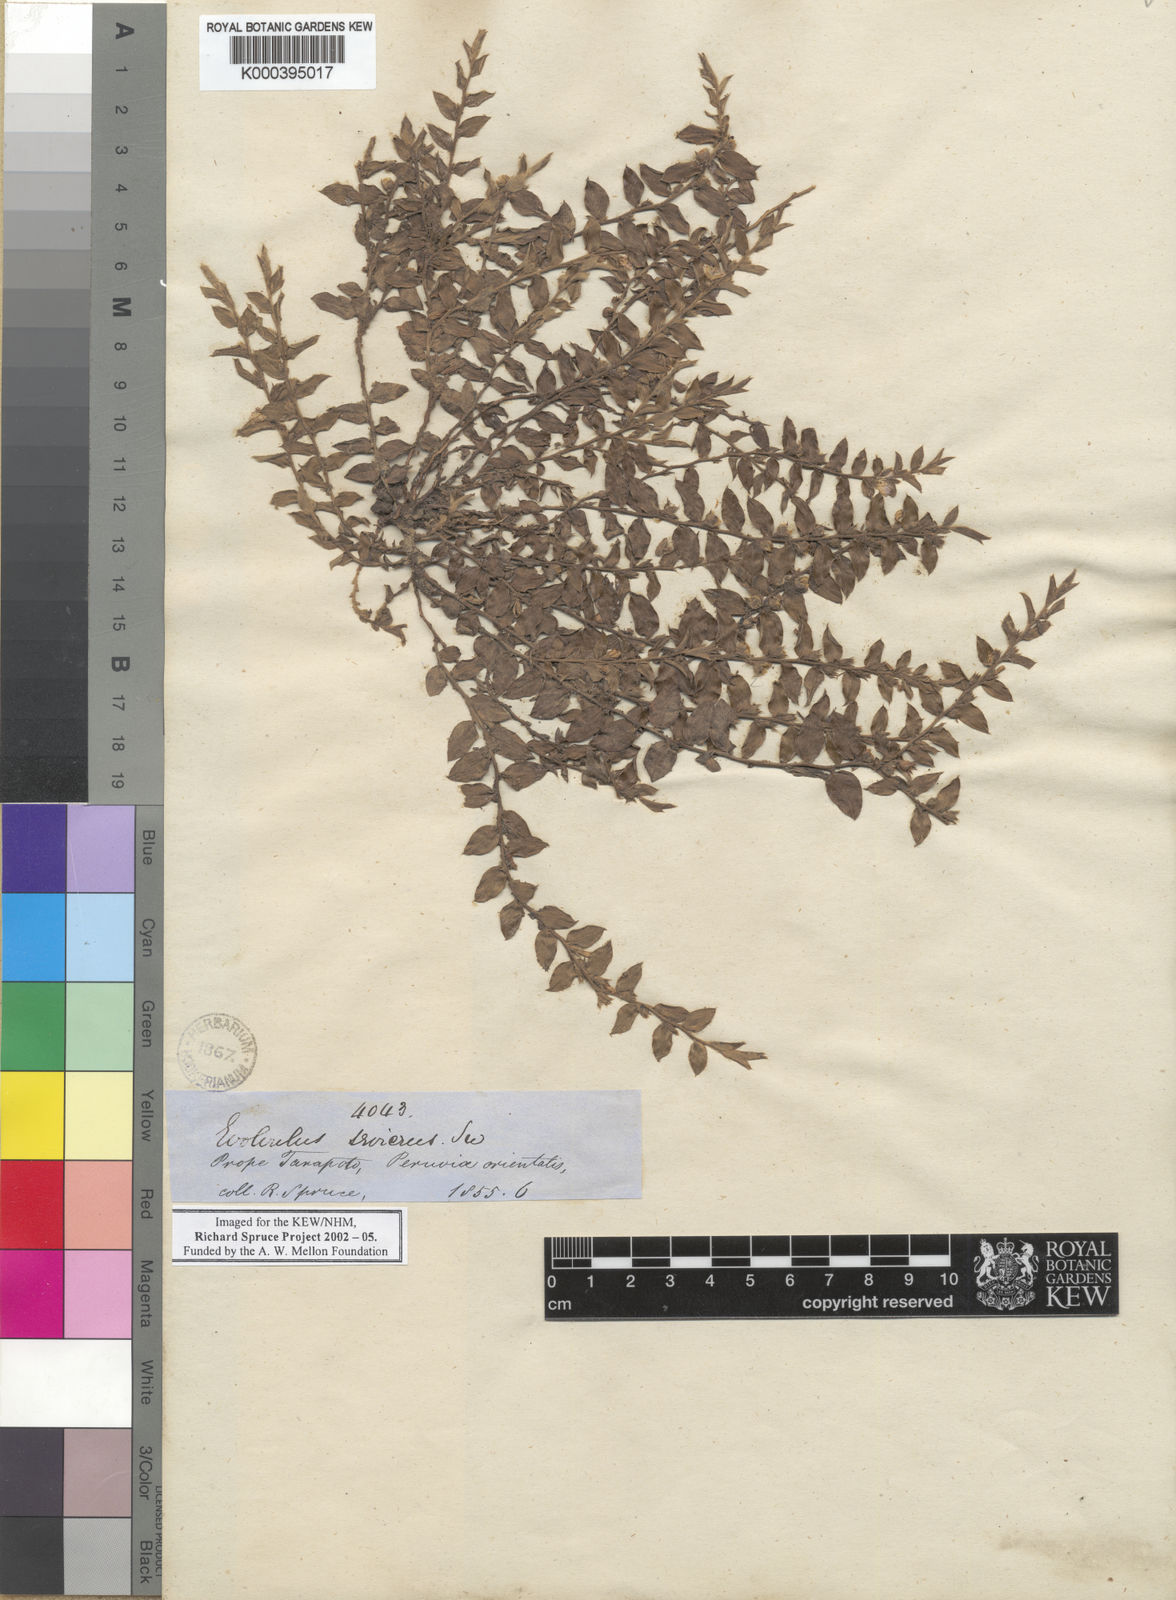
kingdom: Plantae
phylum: Tracheophyta
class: Magnoliopsida
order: Solanales
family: Convolvulaceae
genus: Evolvulus
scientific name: Evolvulus sericeus
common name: Blue dots
